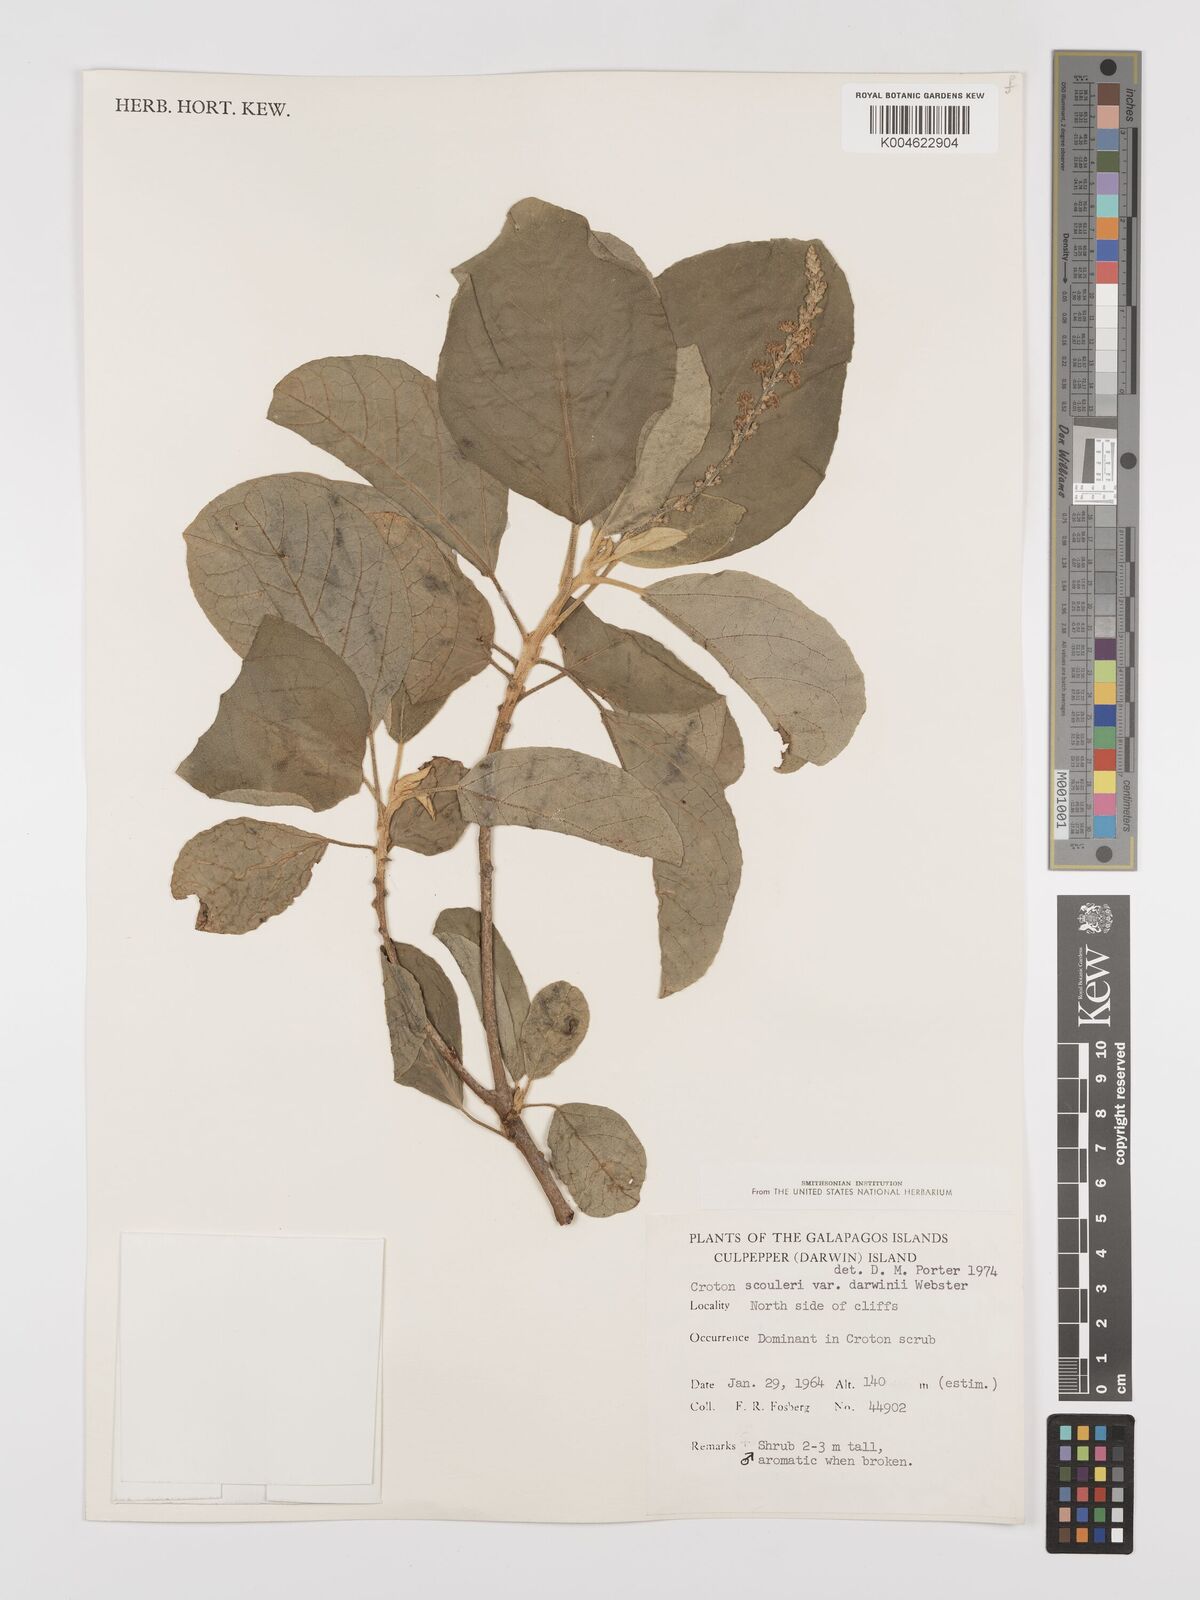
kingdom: Plantae
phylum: Tracheophyta
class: Magnoliopsida
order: Malpighiales
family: Euphorbiaceae
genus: Croton
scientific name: Croton scouleri
